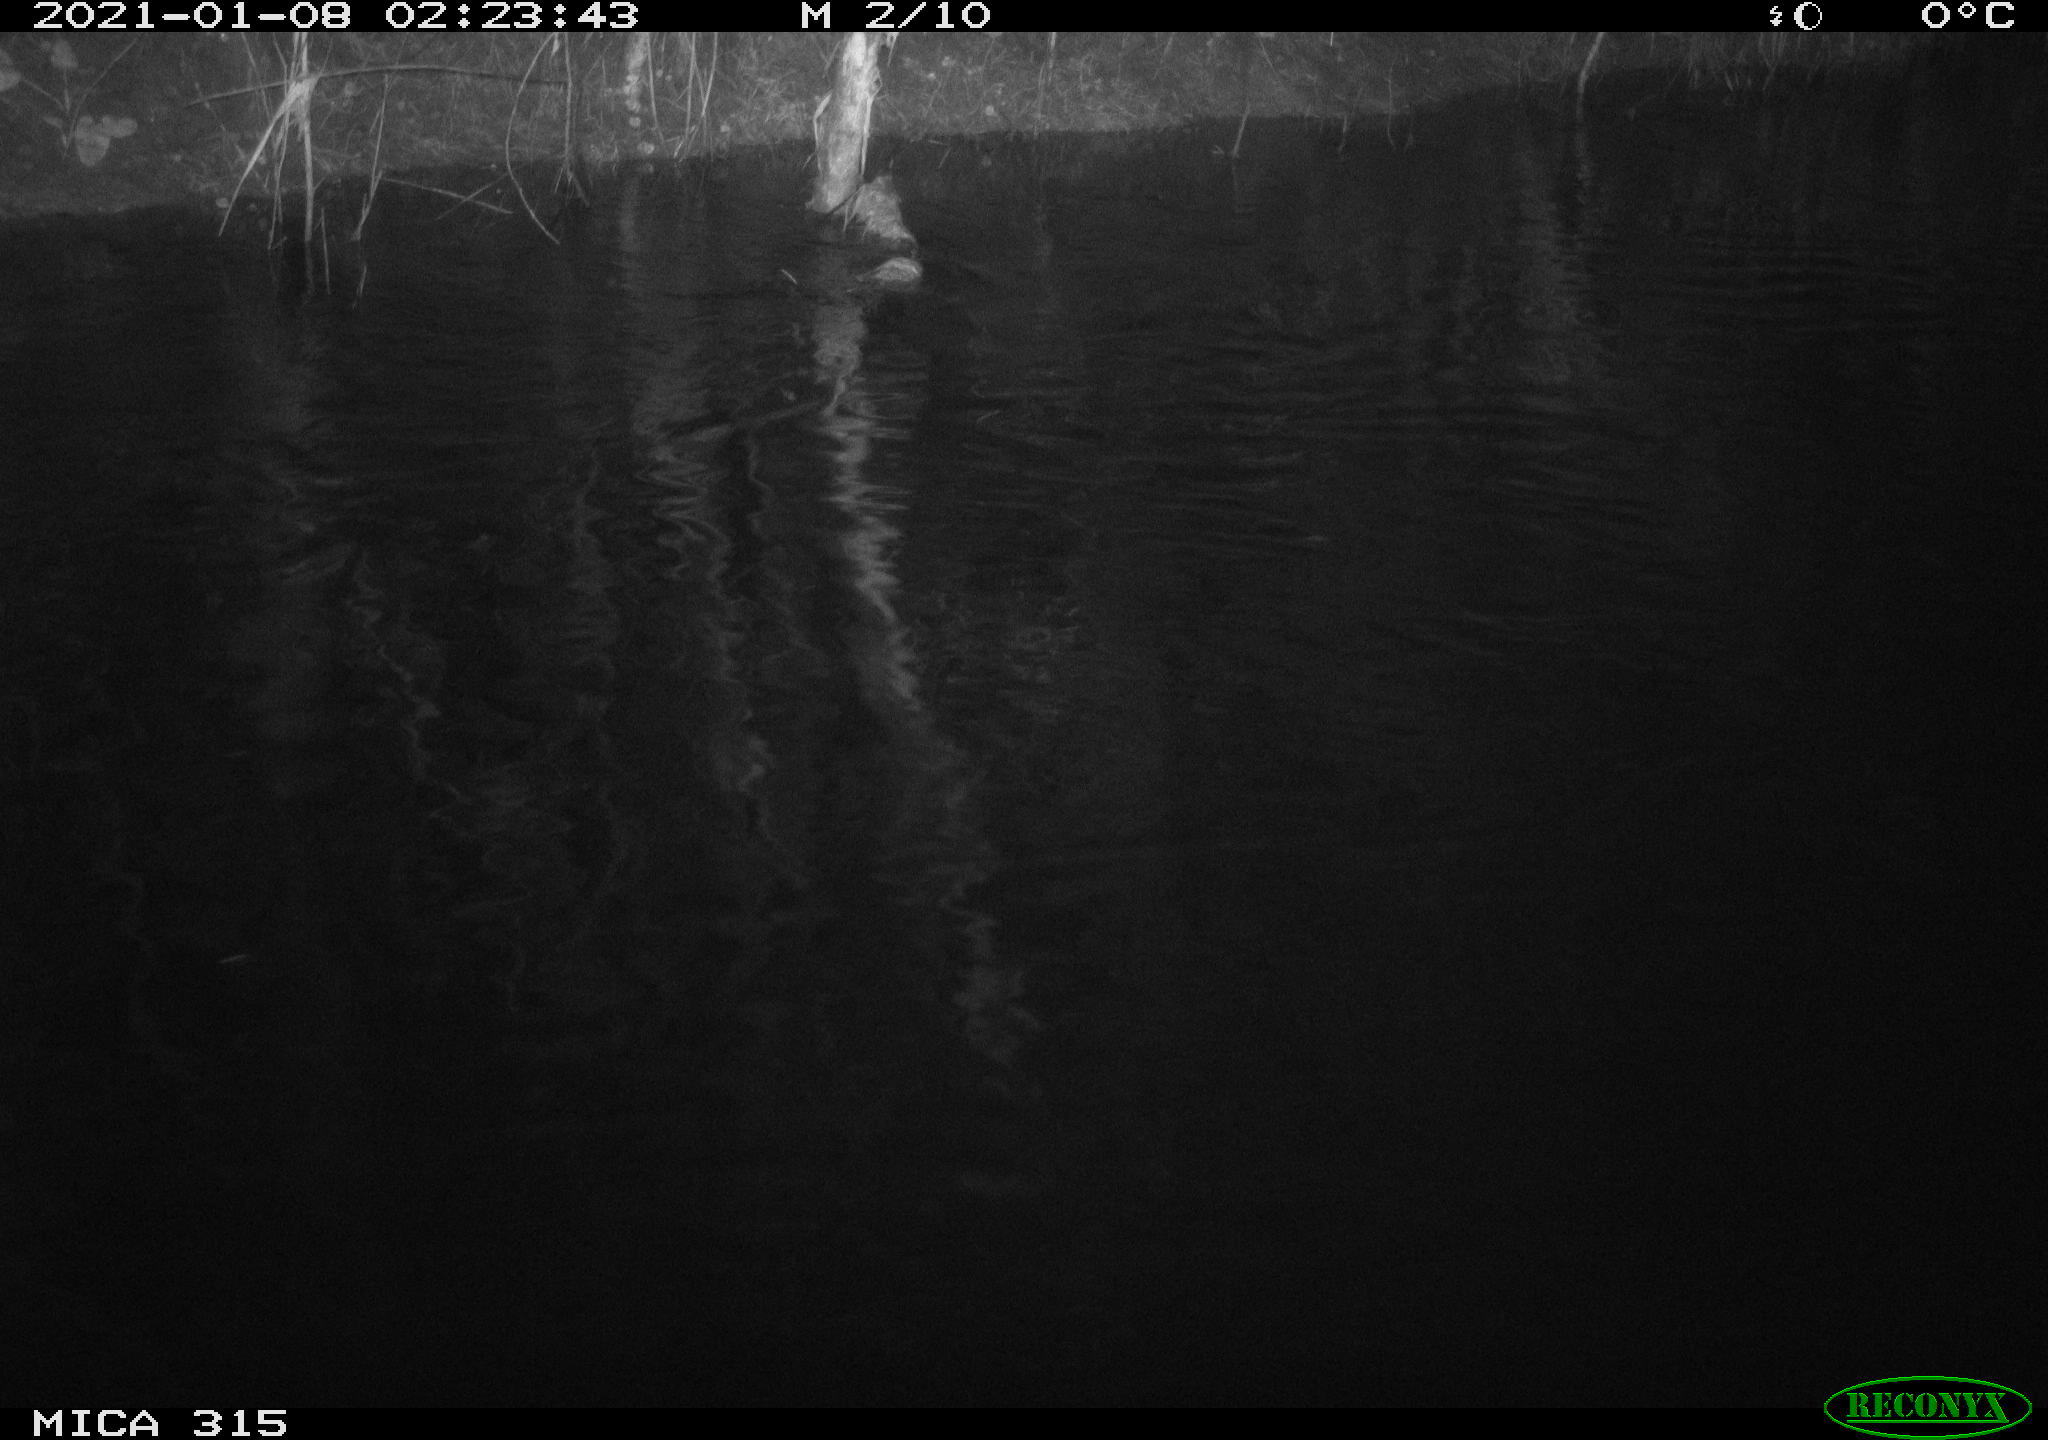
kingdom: Animalia
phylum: Chordata
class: Aves
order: Anseriformes
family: Anatidae
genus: Anas
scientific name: Anas platyrhynchos
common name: Mallard
